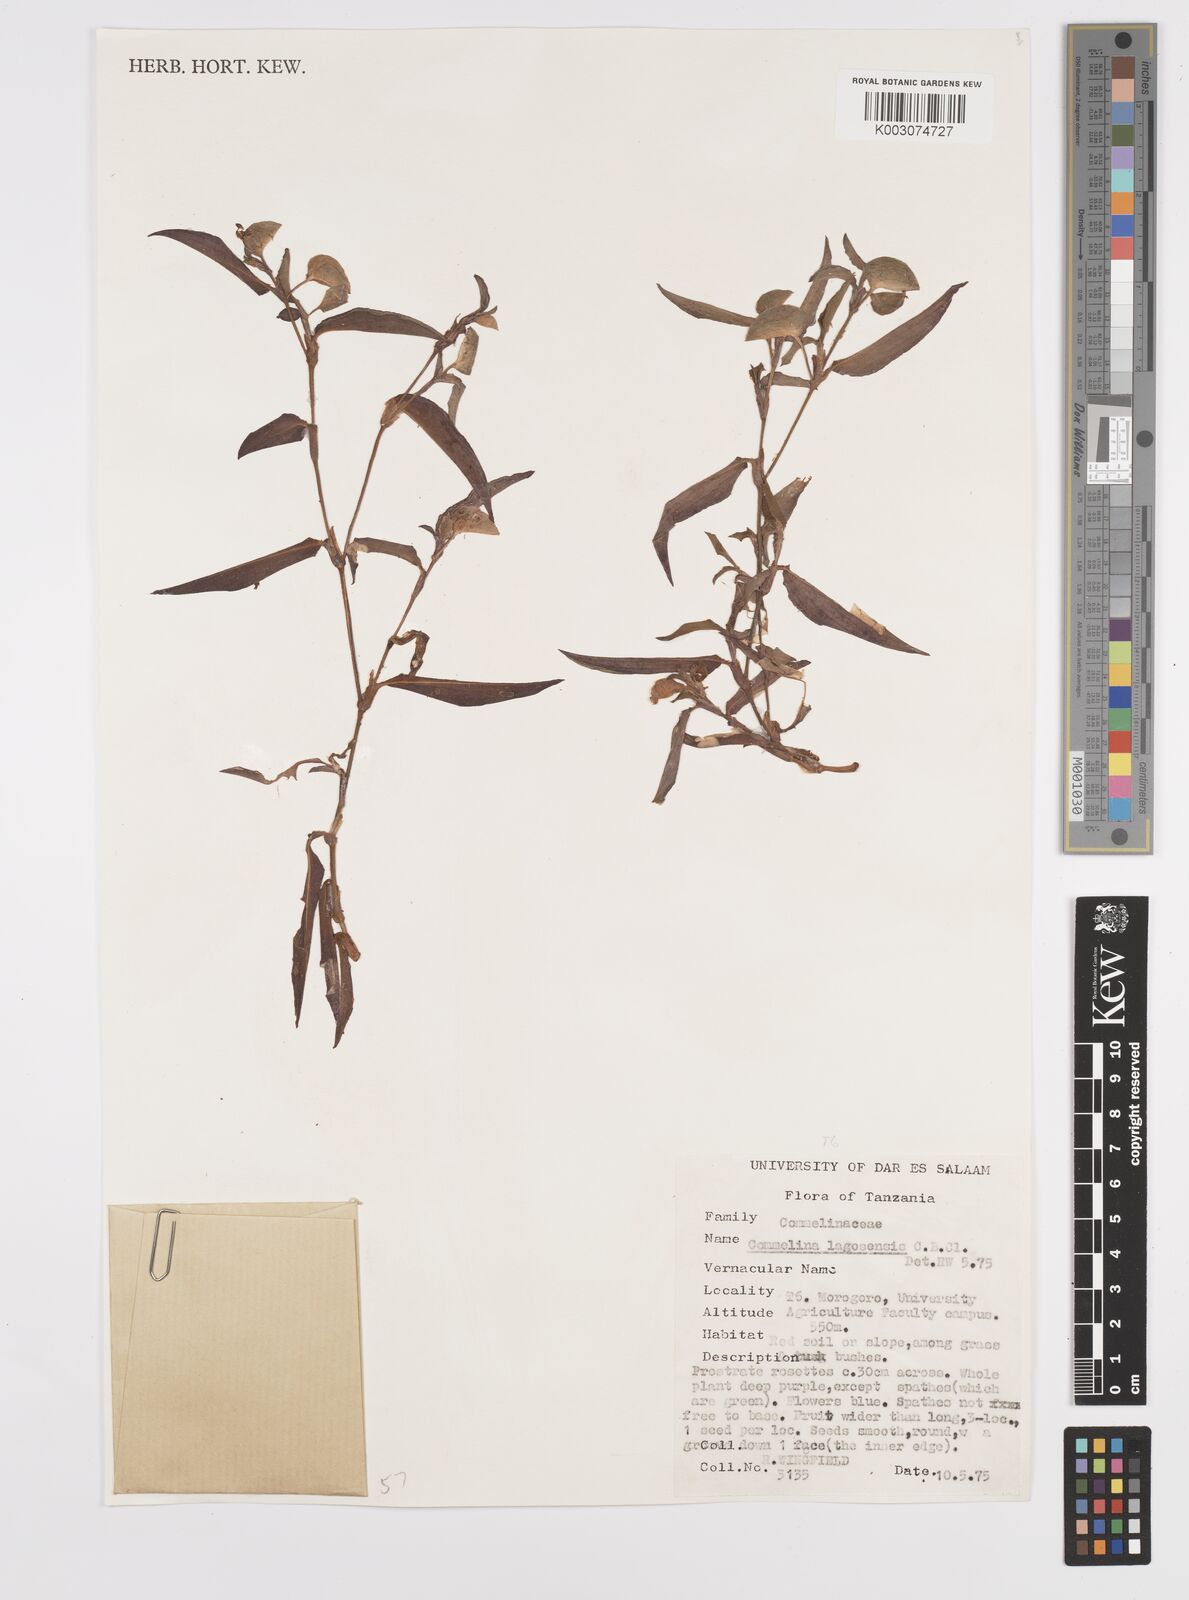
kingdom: Plantae
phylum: Tracheophyta
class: Liliopsida
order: Commelinales
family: Commelinaceae
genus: Commelina
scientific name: Commelina bracteosa
